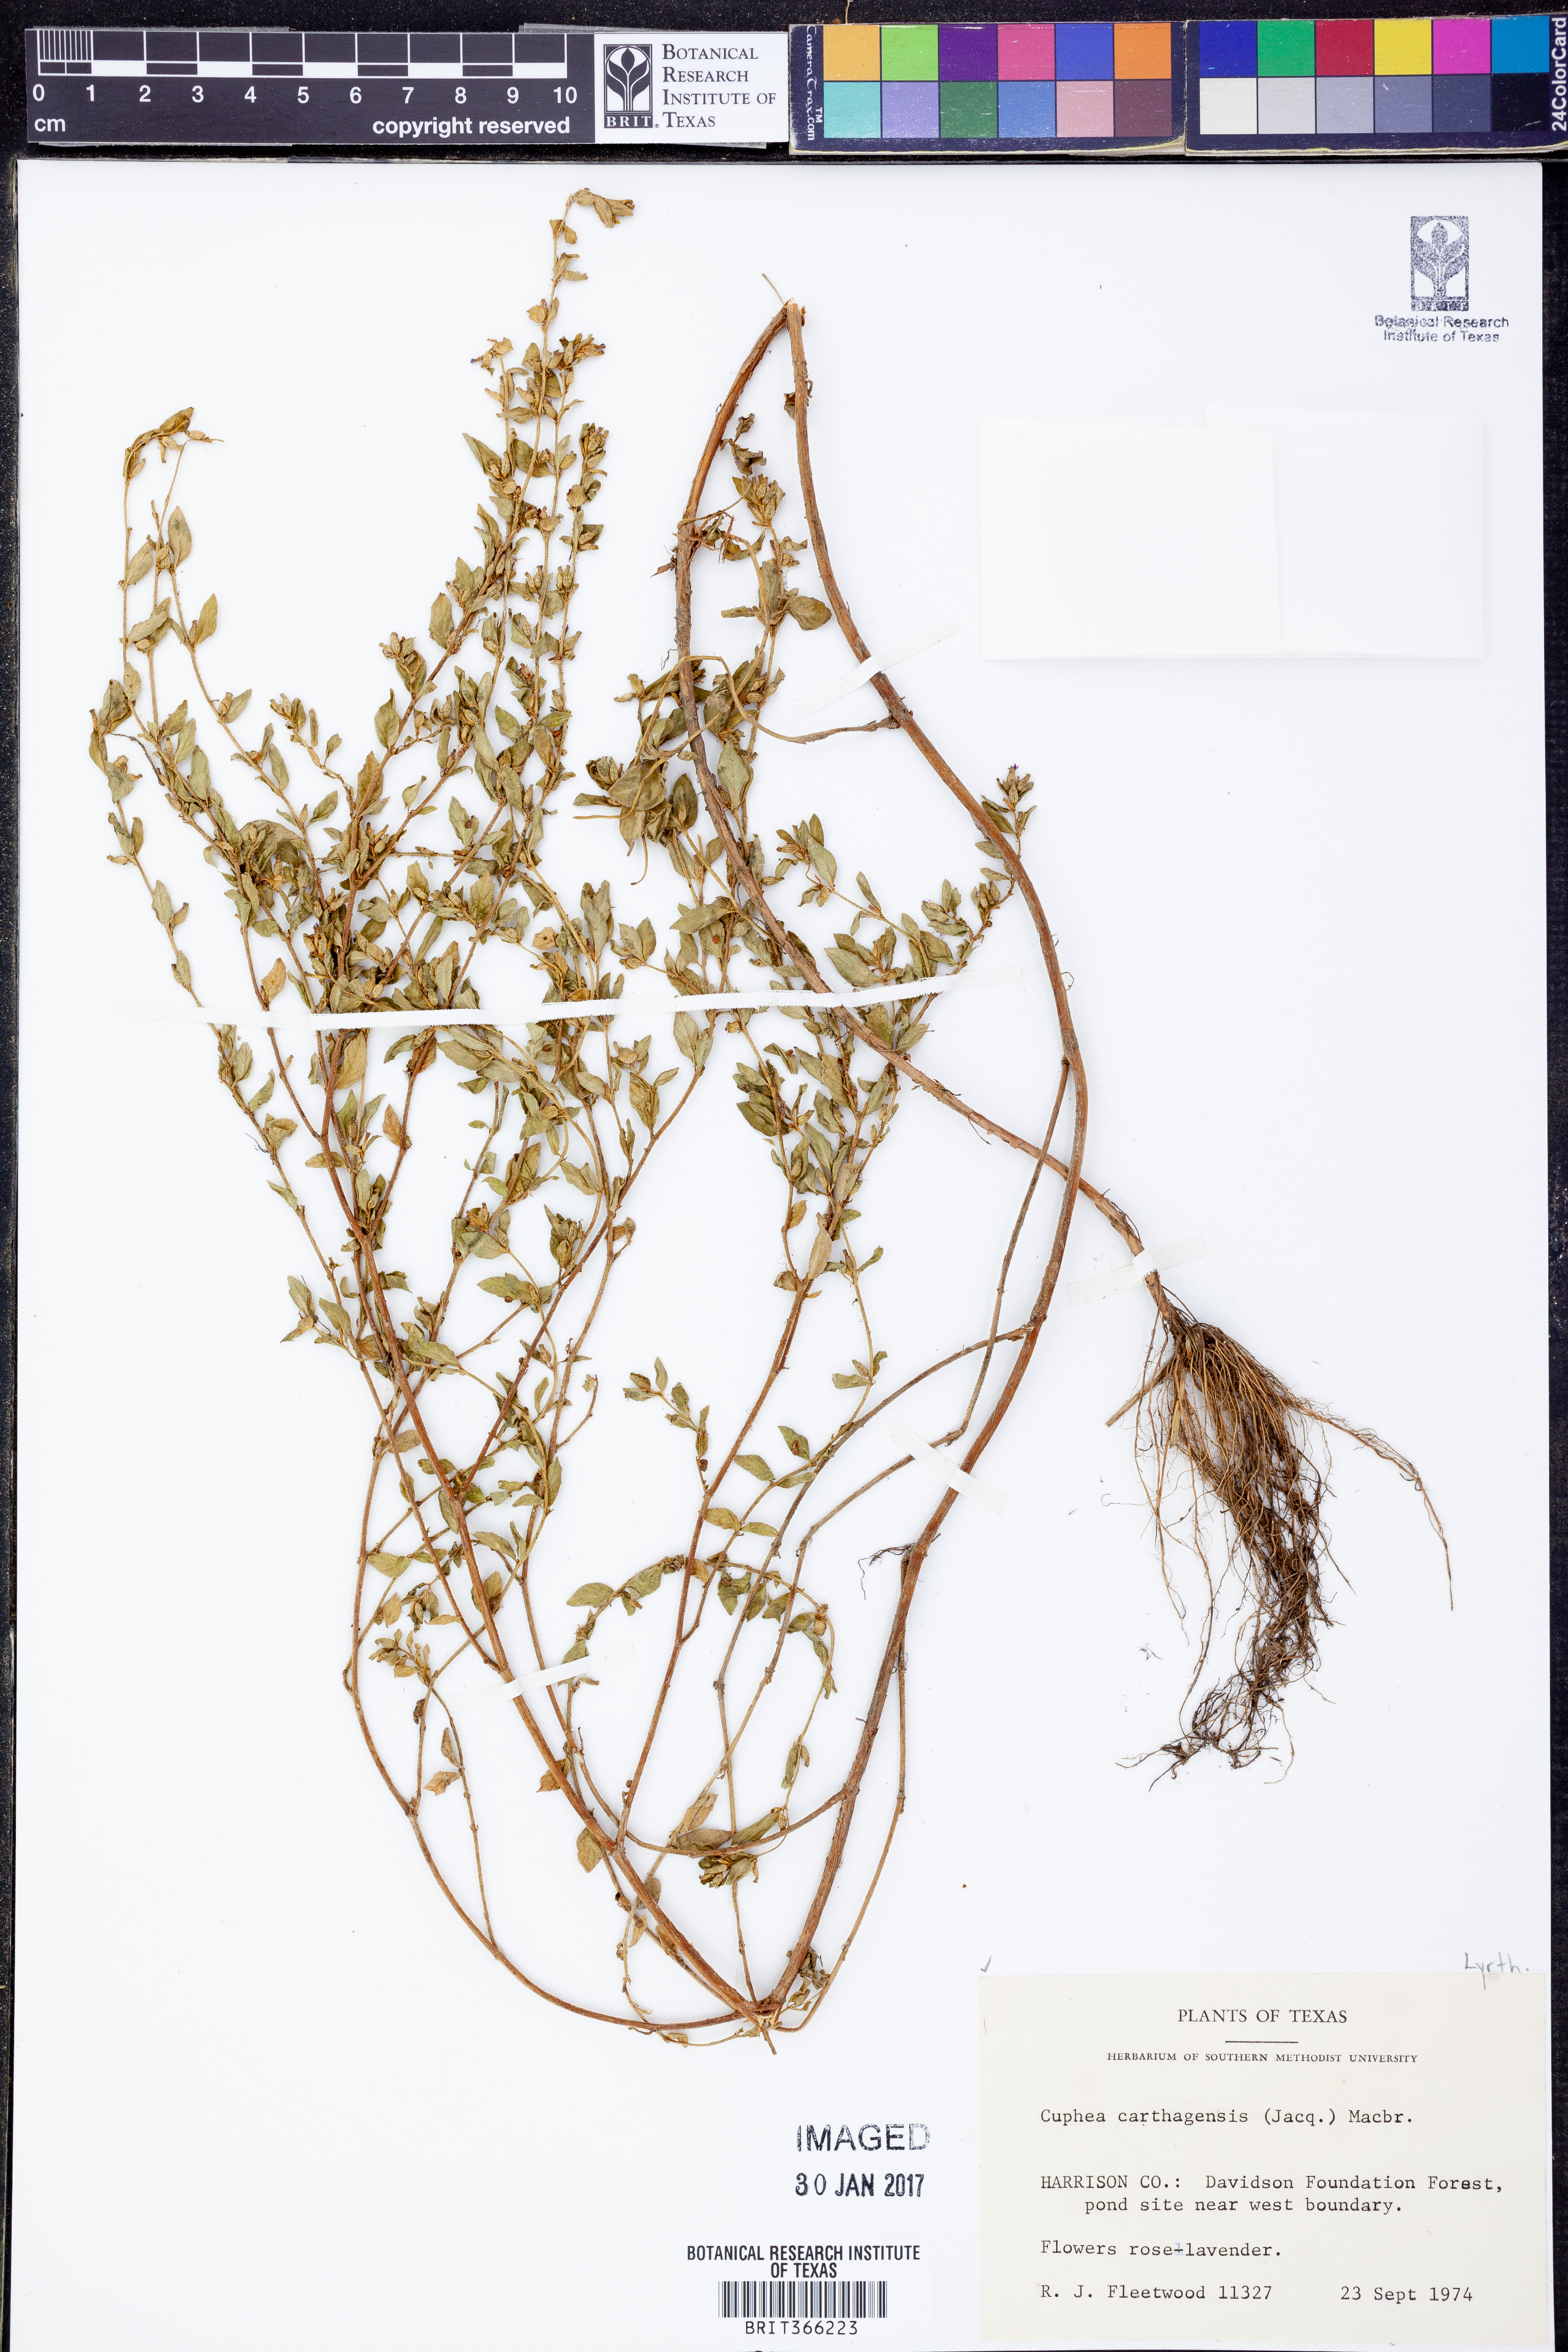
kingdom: Plantae
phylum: Tracheophyta
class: Magnoliopsida
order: Myrtales
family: Lythraceae
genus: Cuphea
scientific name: Cuphea carthagenensis
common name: Colombian waxweed
